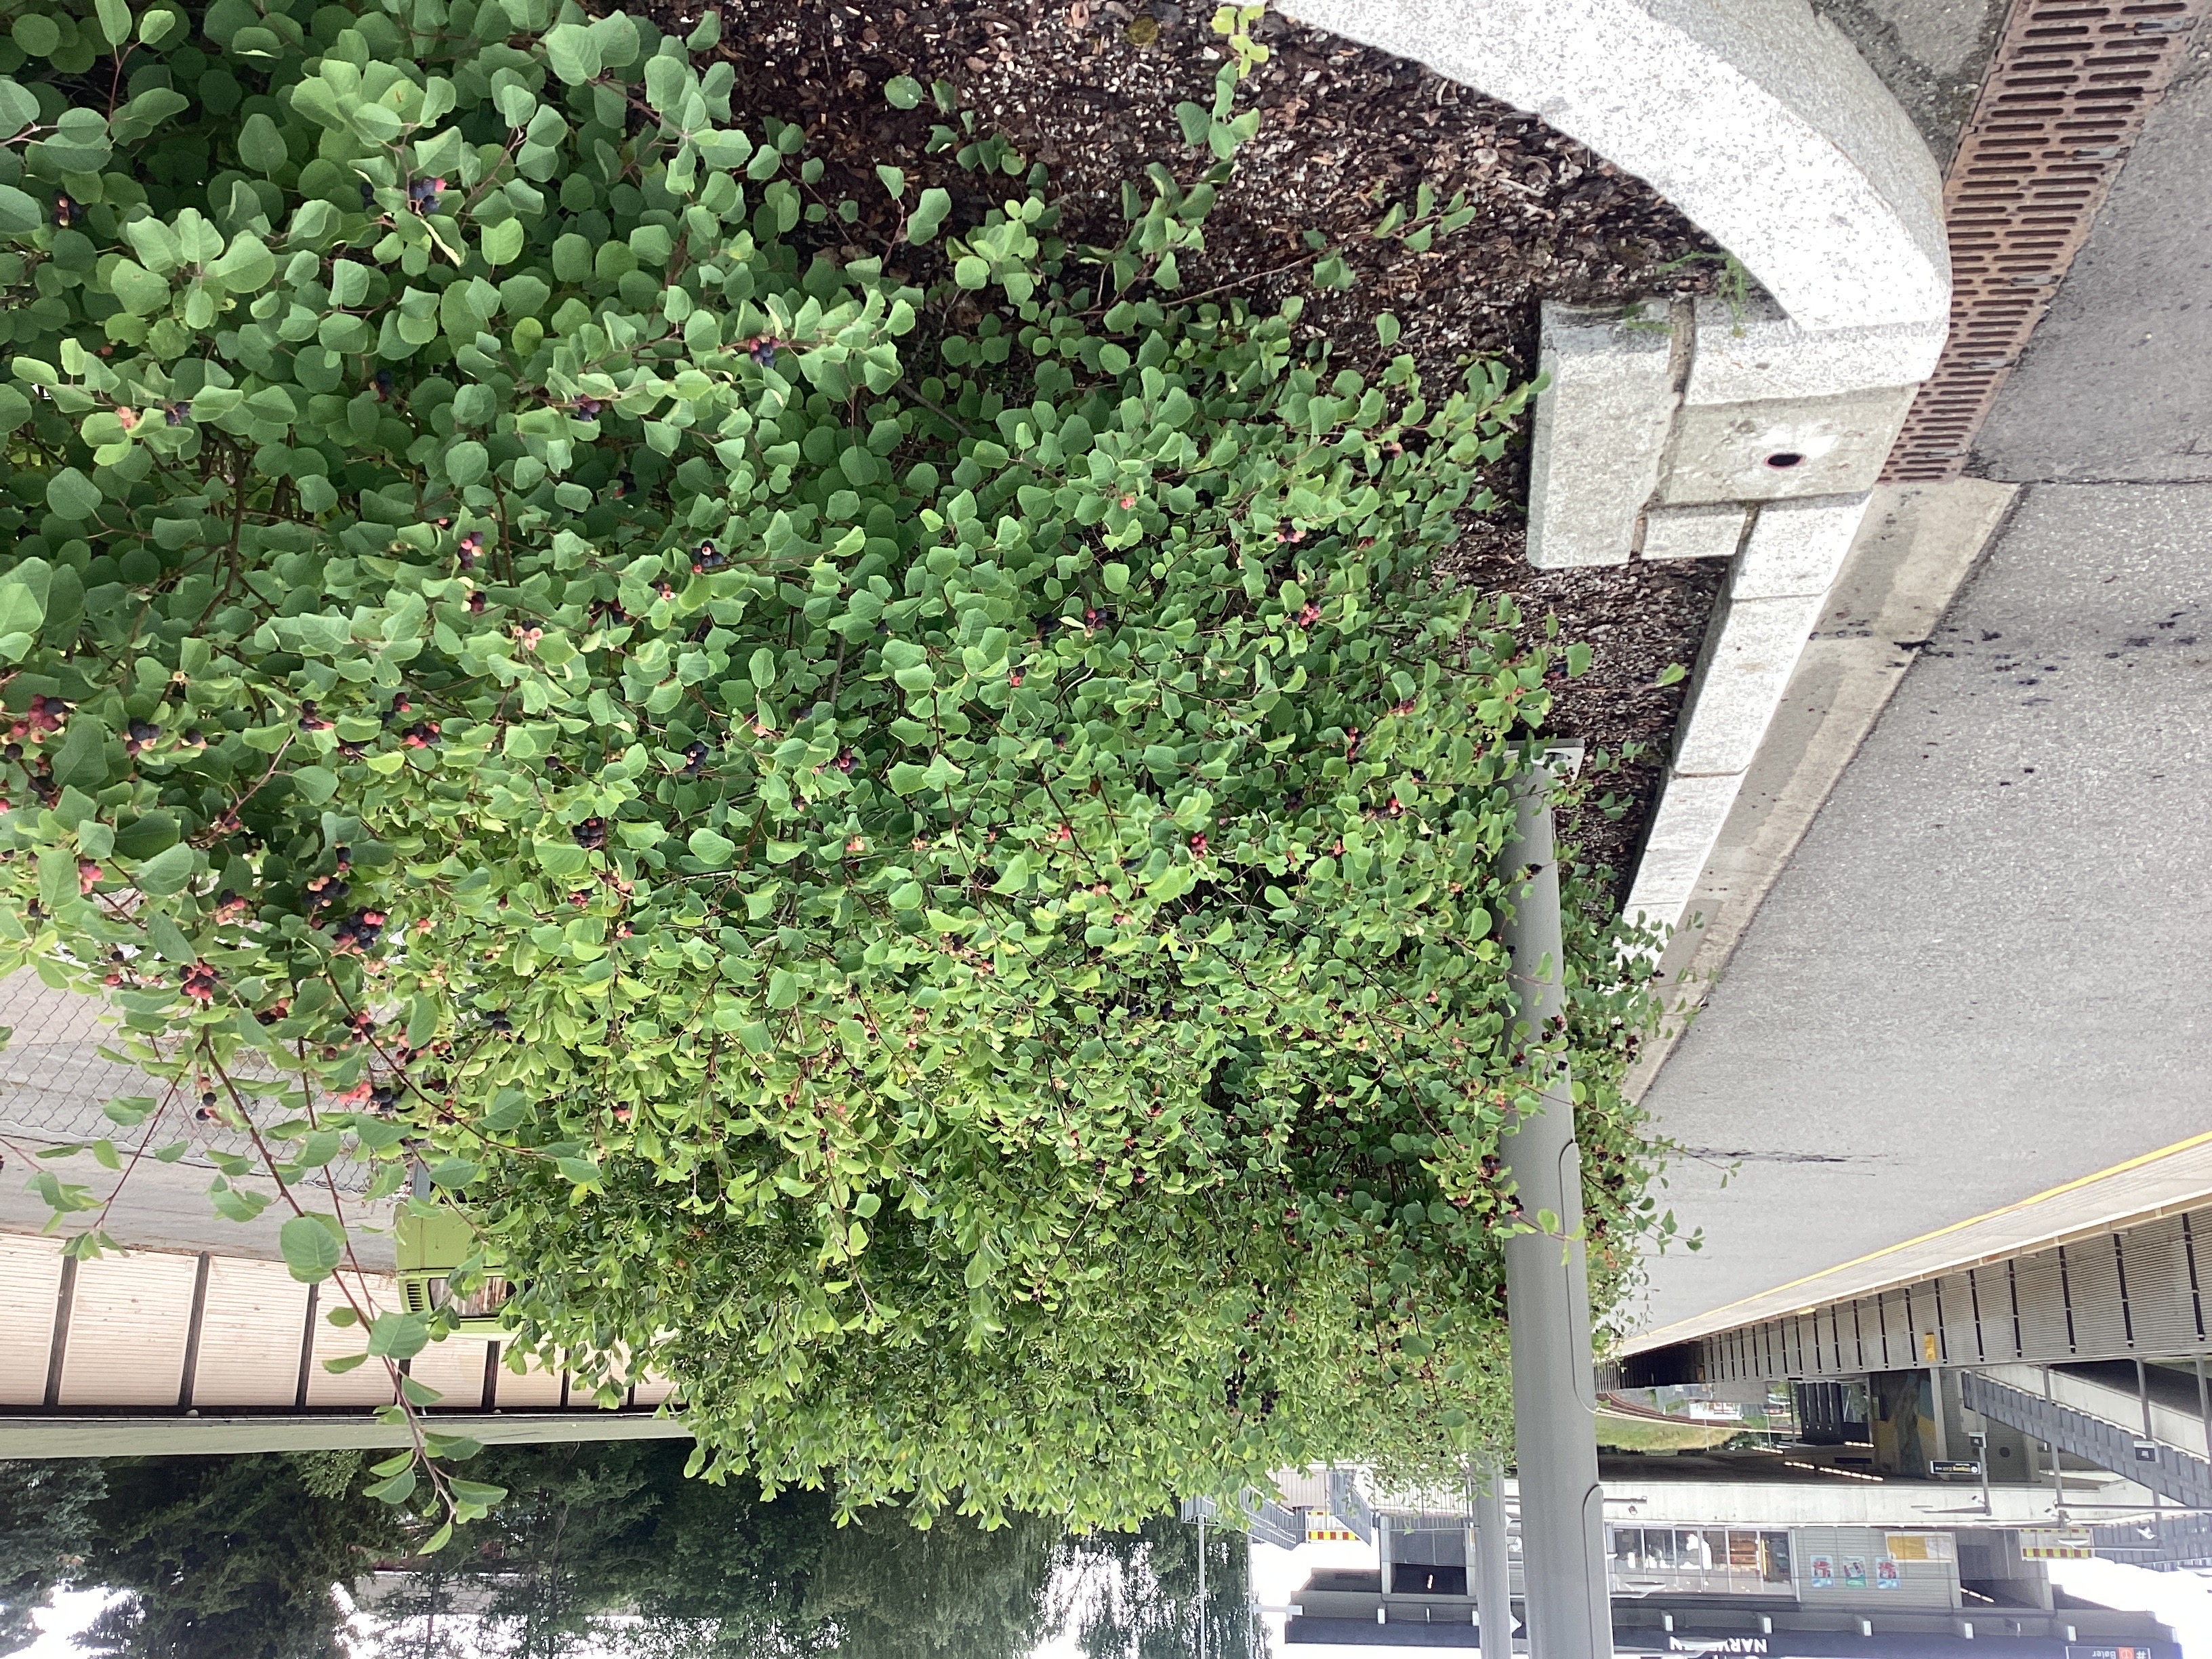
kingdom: Plantae
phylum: Tracheophyta
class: Magnoliopsida
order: Rosales
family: Rosaceae
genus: Amelanchier
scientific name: Amelanchier alnifolia
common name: taggblåhegg
